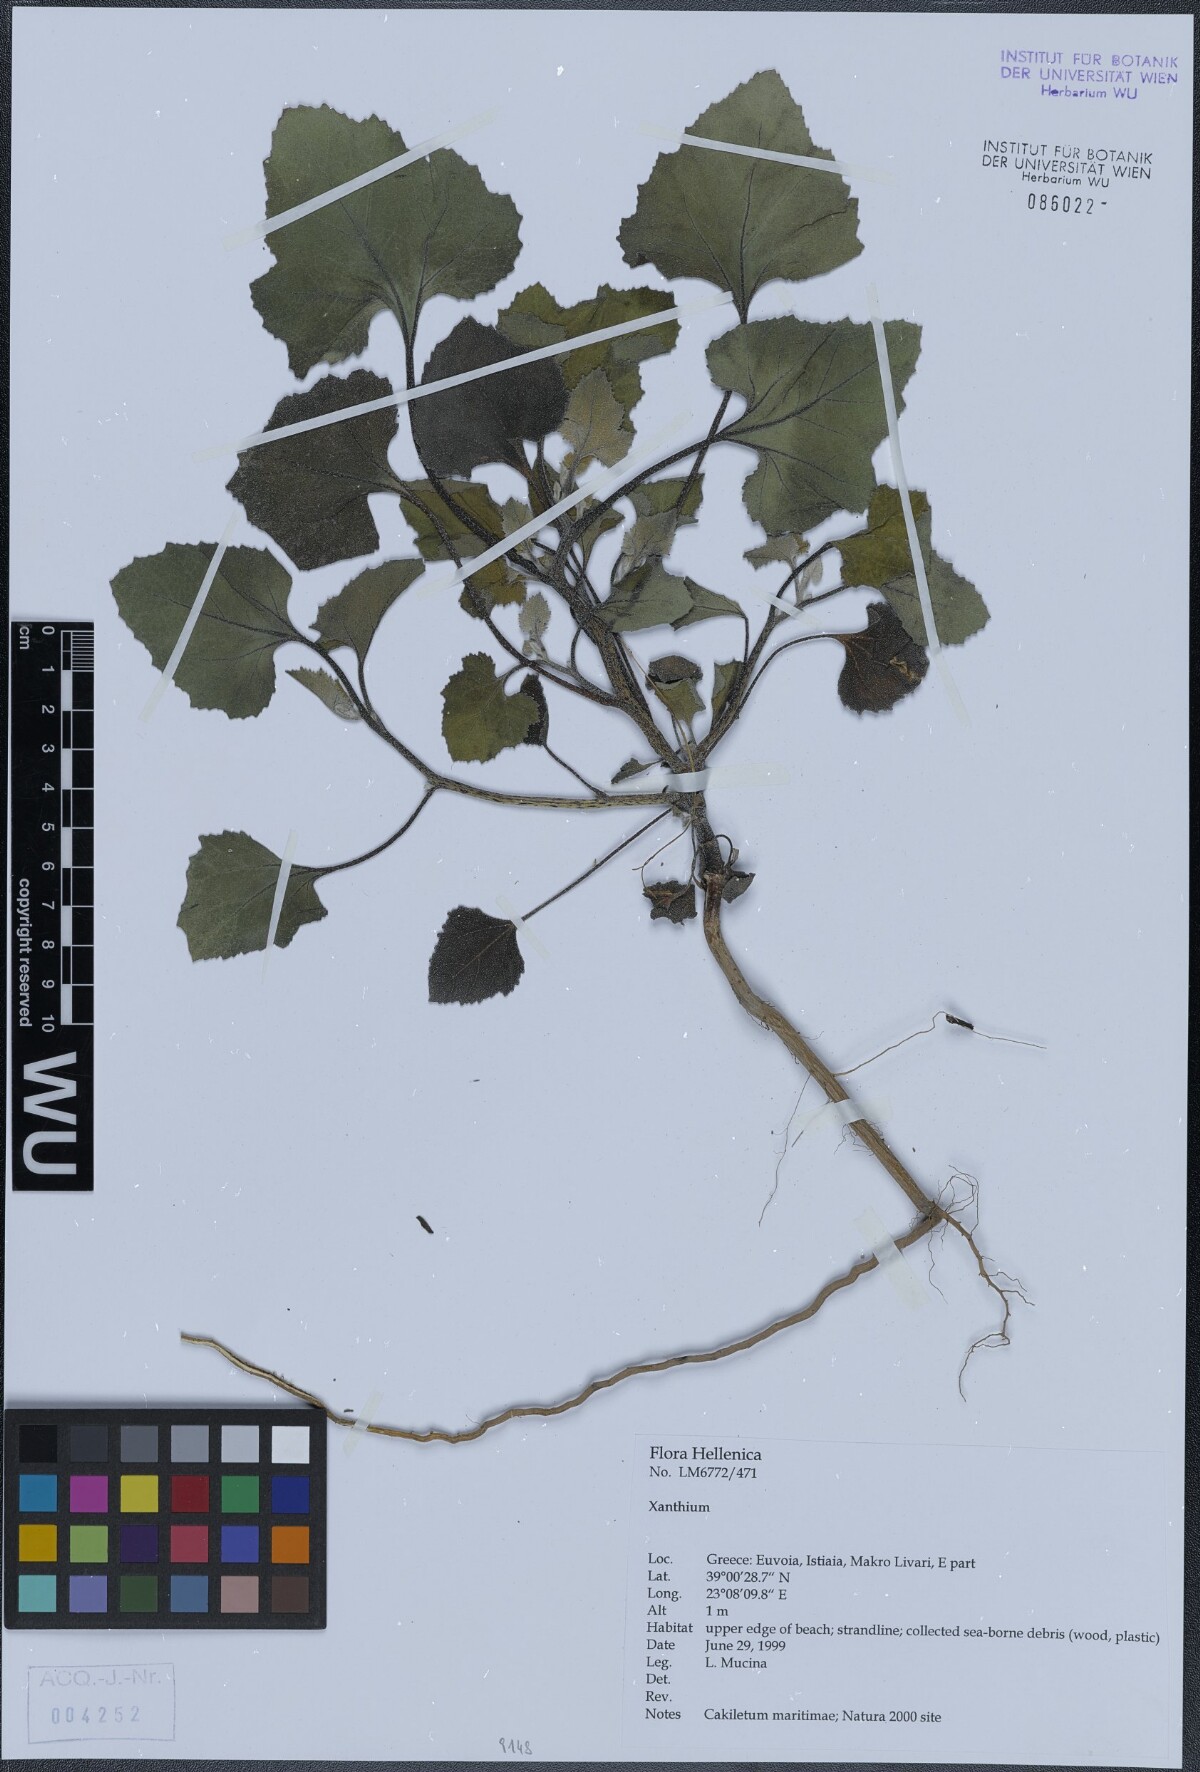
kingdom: Plantae
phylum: Tracheophyta
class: Magnoliopsida
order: Asterales
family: Asteraceae
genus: Xanthium
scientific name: Xanthium
